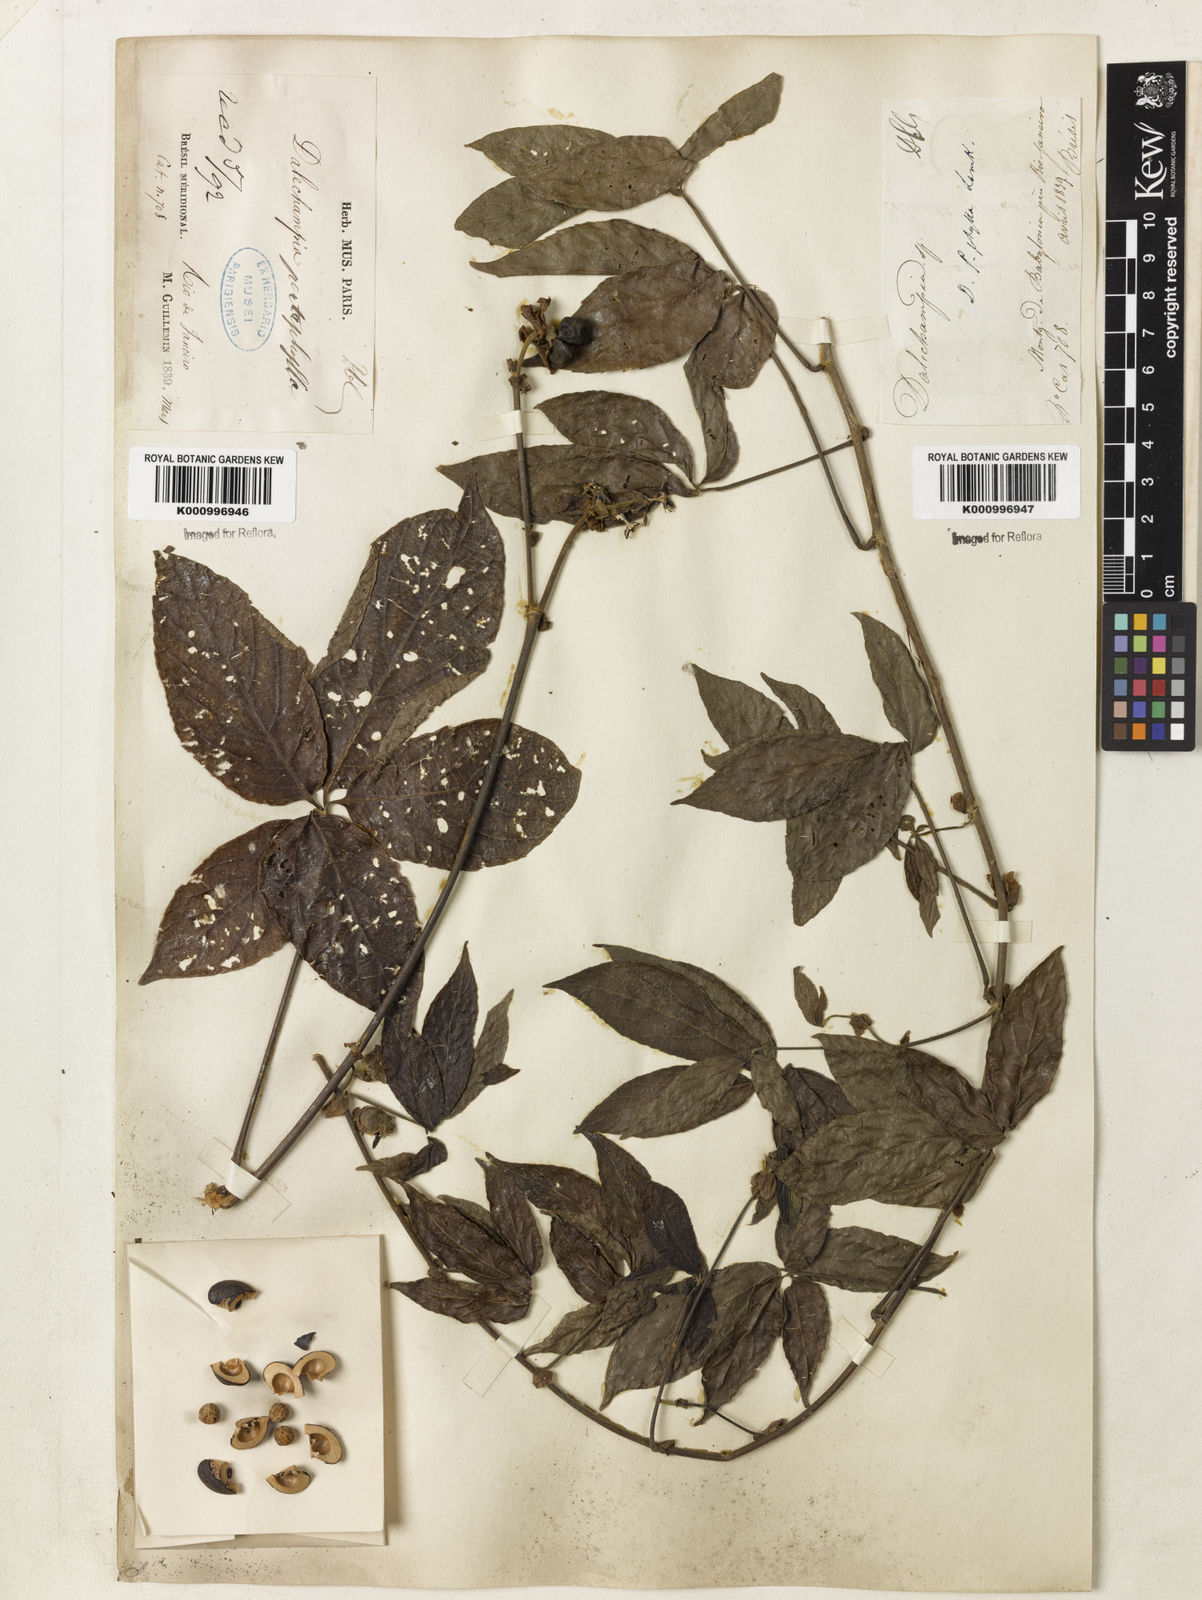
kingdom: Plantae
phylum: Tracheophyta
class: Magnoliopsida
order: Malpighiales
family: Euphorbiaceae
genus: Dalechampia
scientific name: Dalechampia pentaphylla
